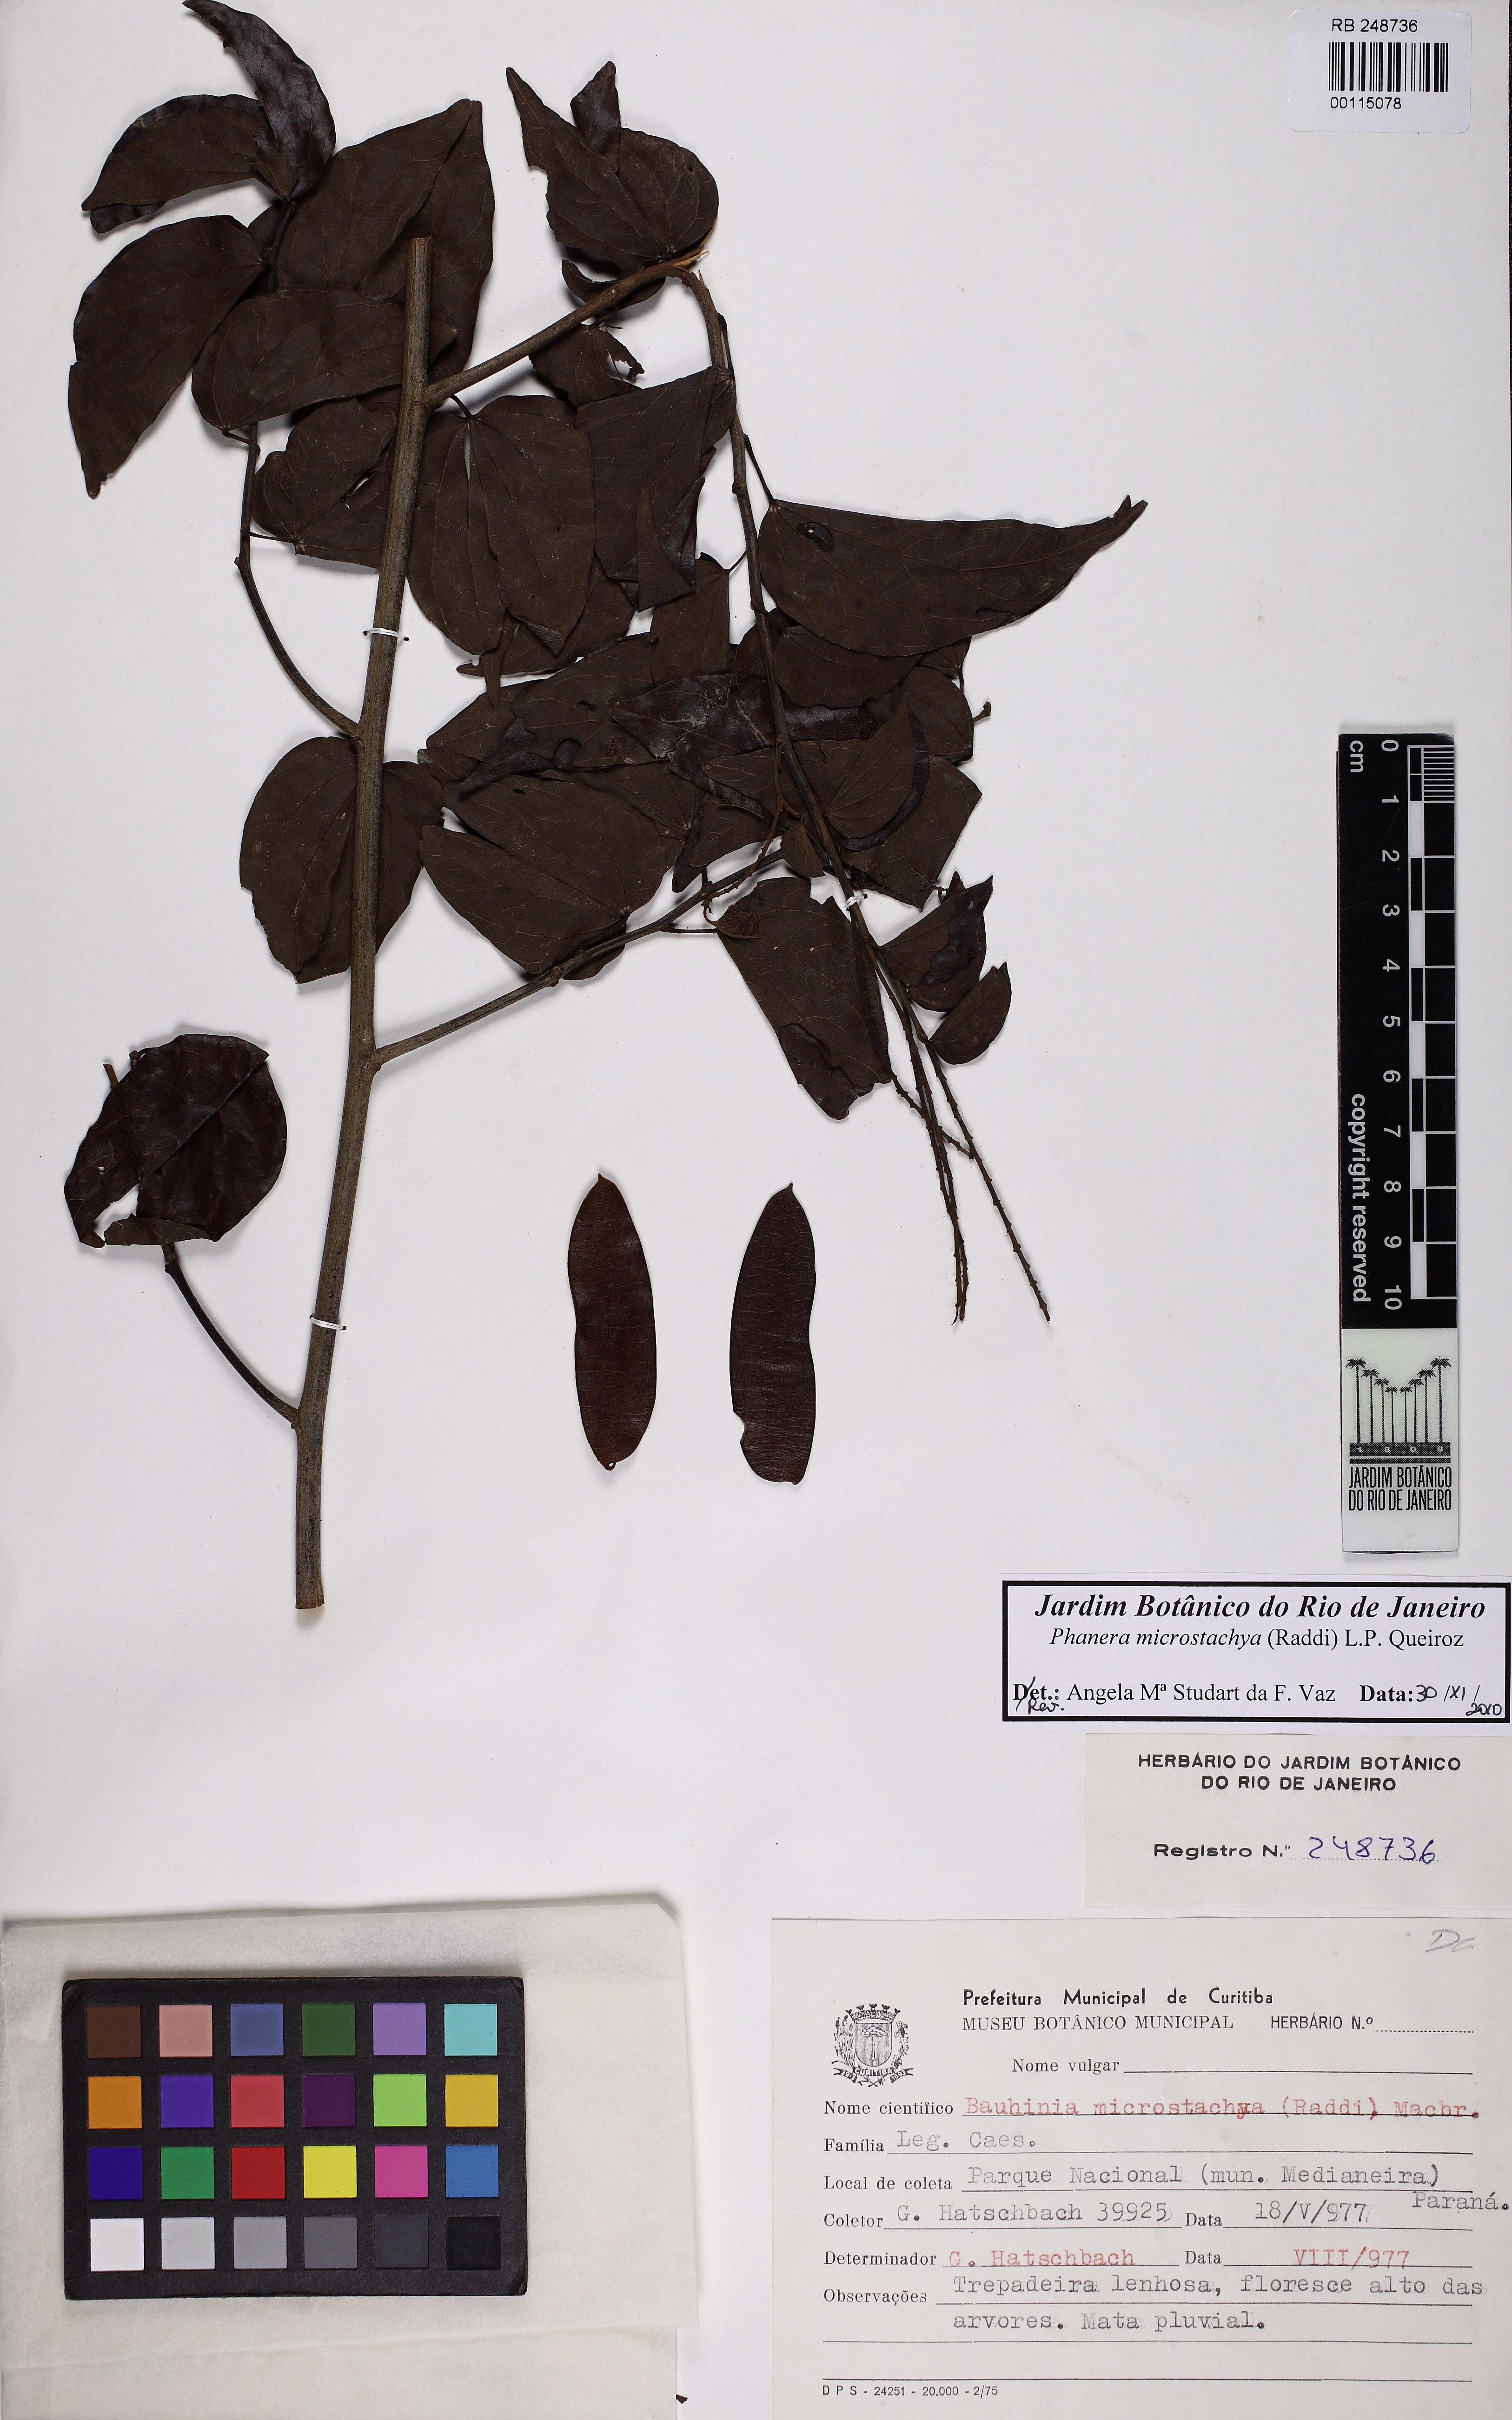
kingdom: Plantae
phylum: Tracheophyta
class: Magnoliopsida
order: Fabales
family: Fabaceae
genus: Schnella
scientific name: Schnella microstachya
